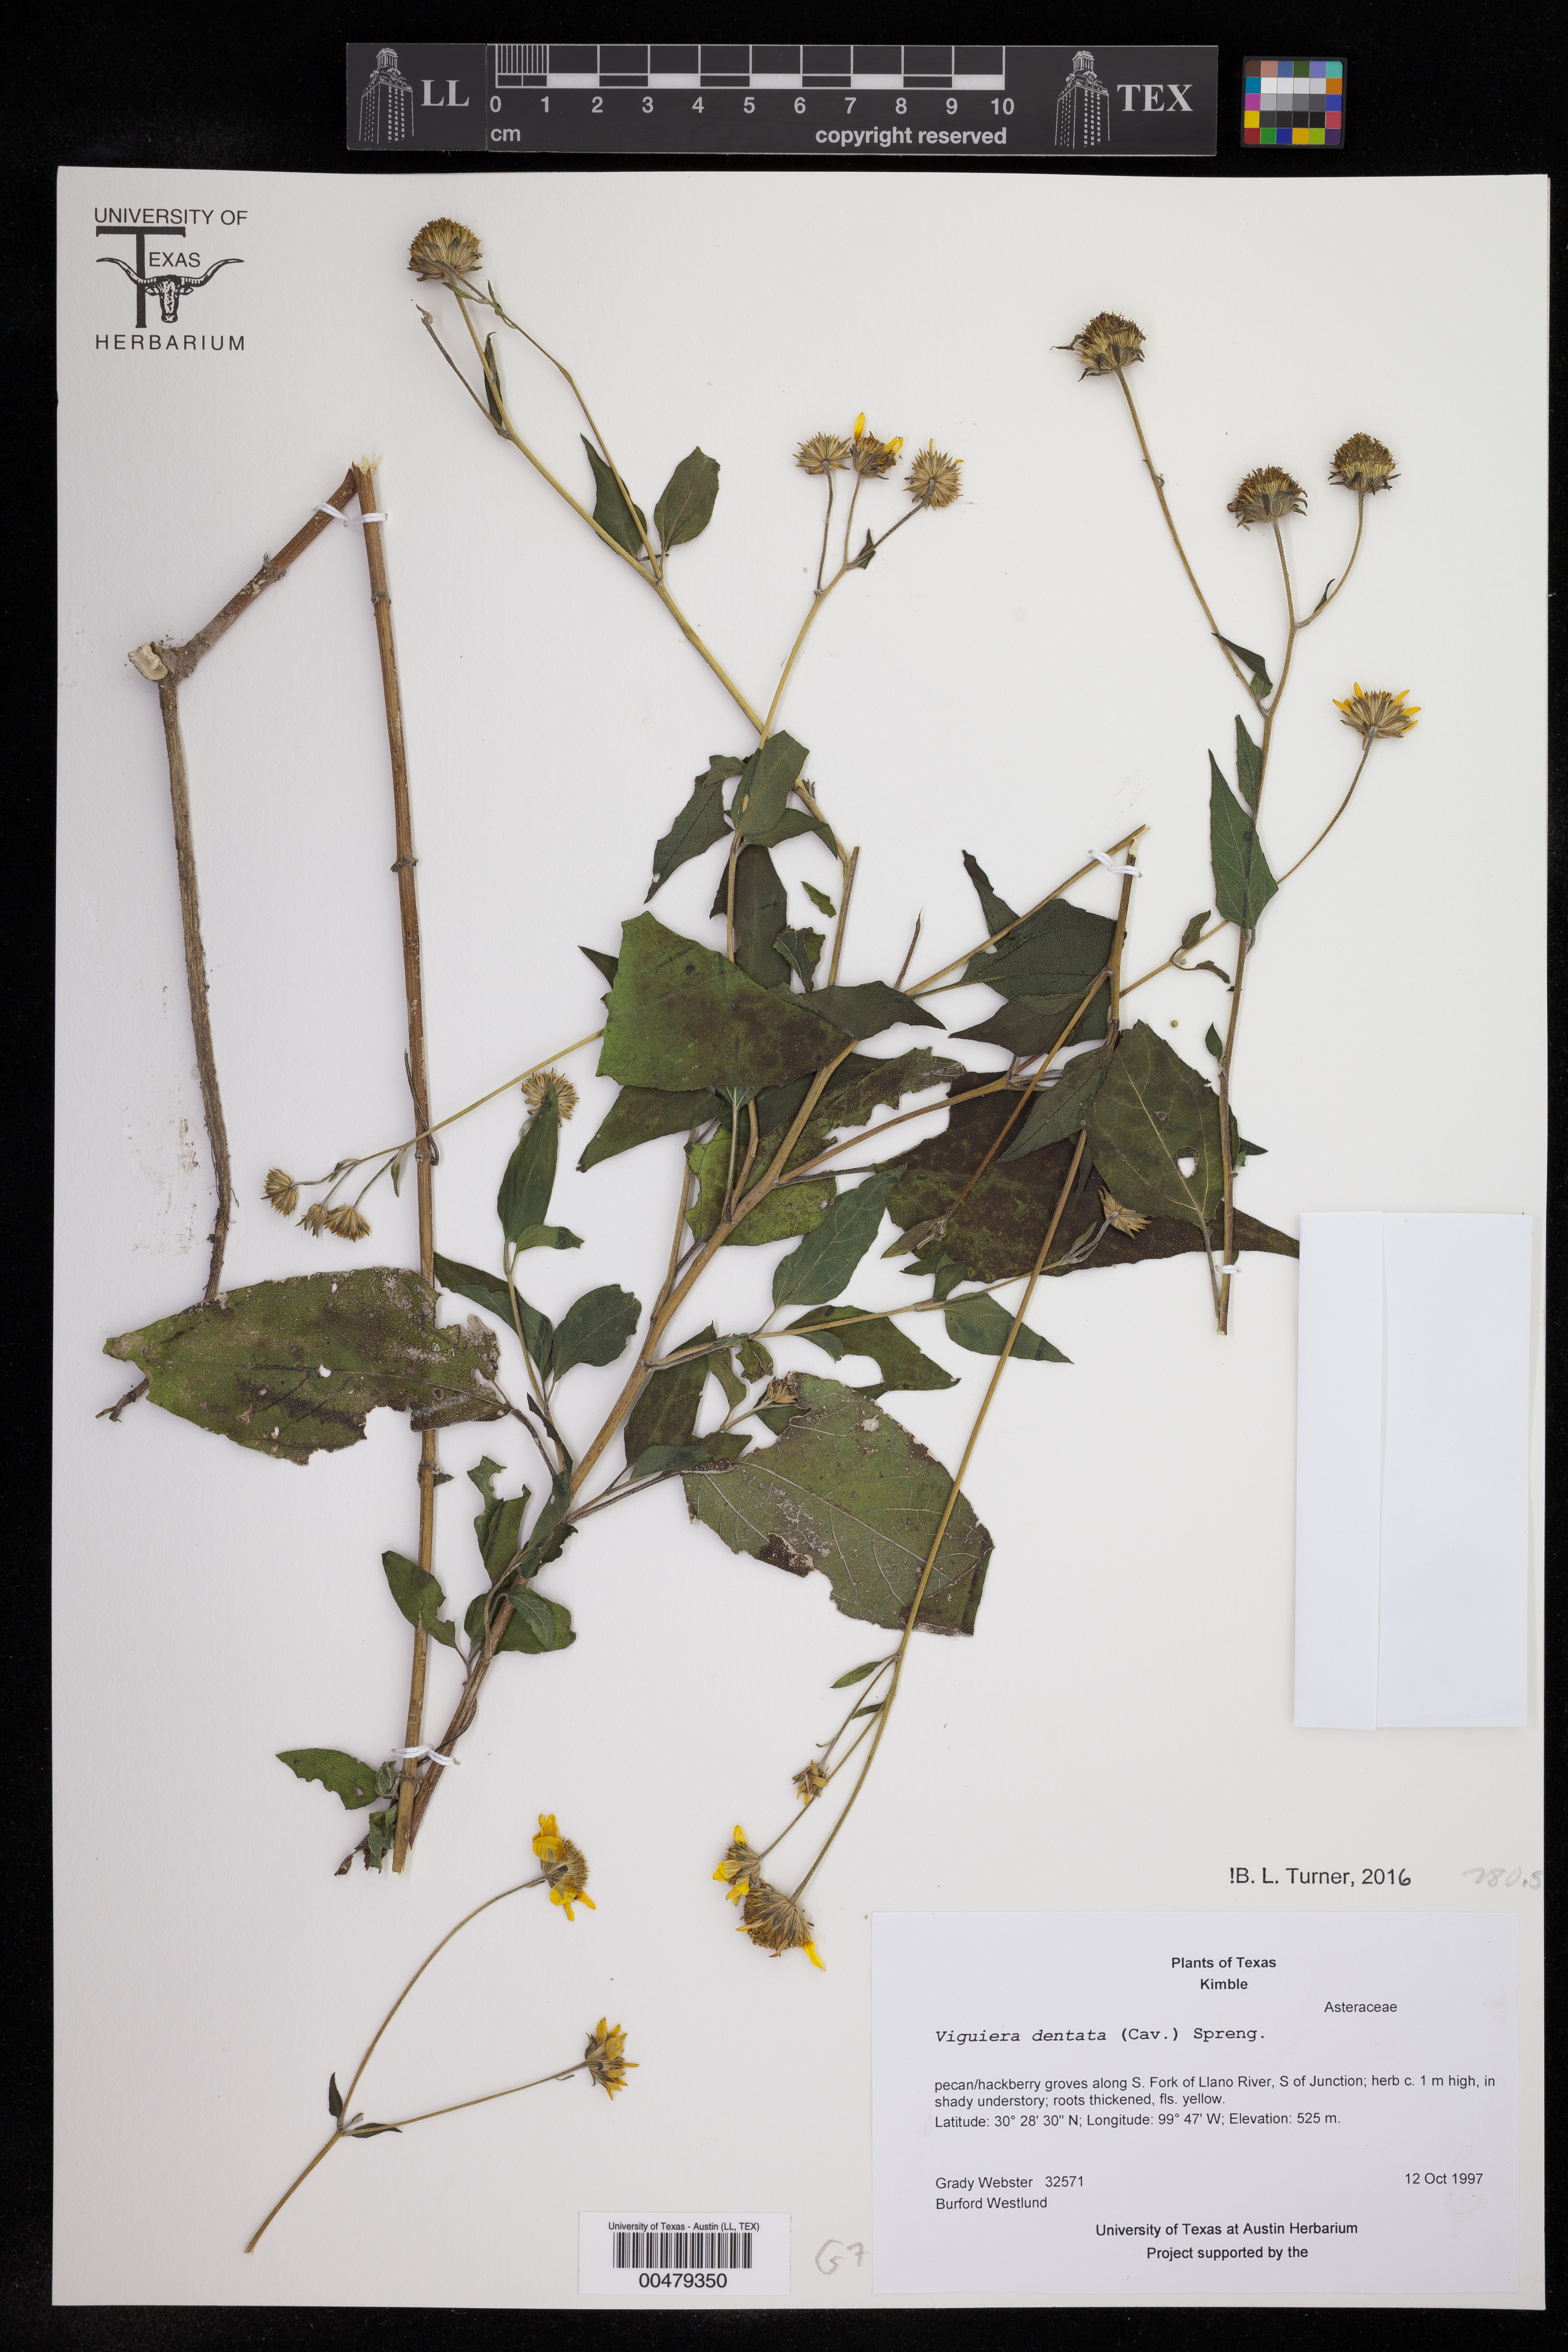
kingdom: Plantae
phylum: Tracheophyta
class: Magnoliopsida
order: Asterales
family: Asteraceae
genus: Viguiera
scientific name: Viguiera dentata
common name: Toothleaf
